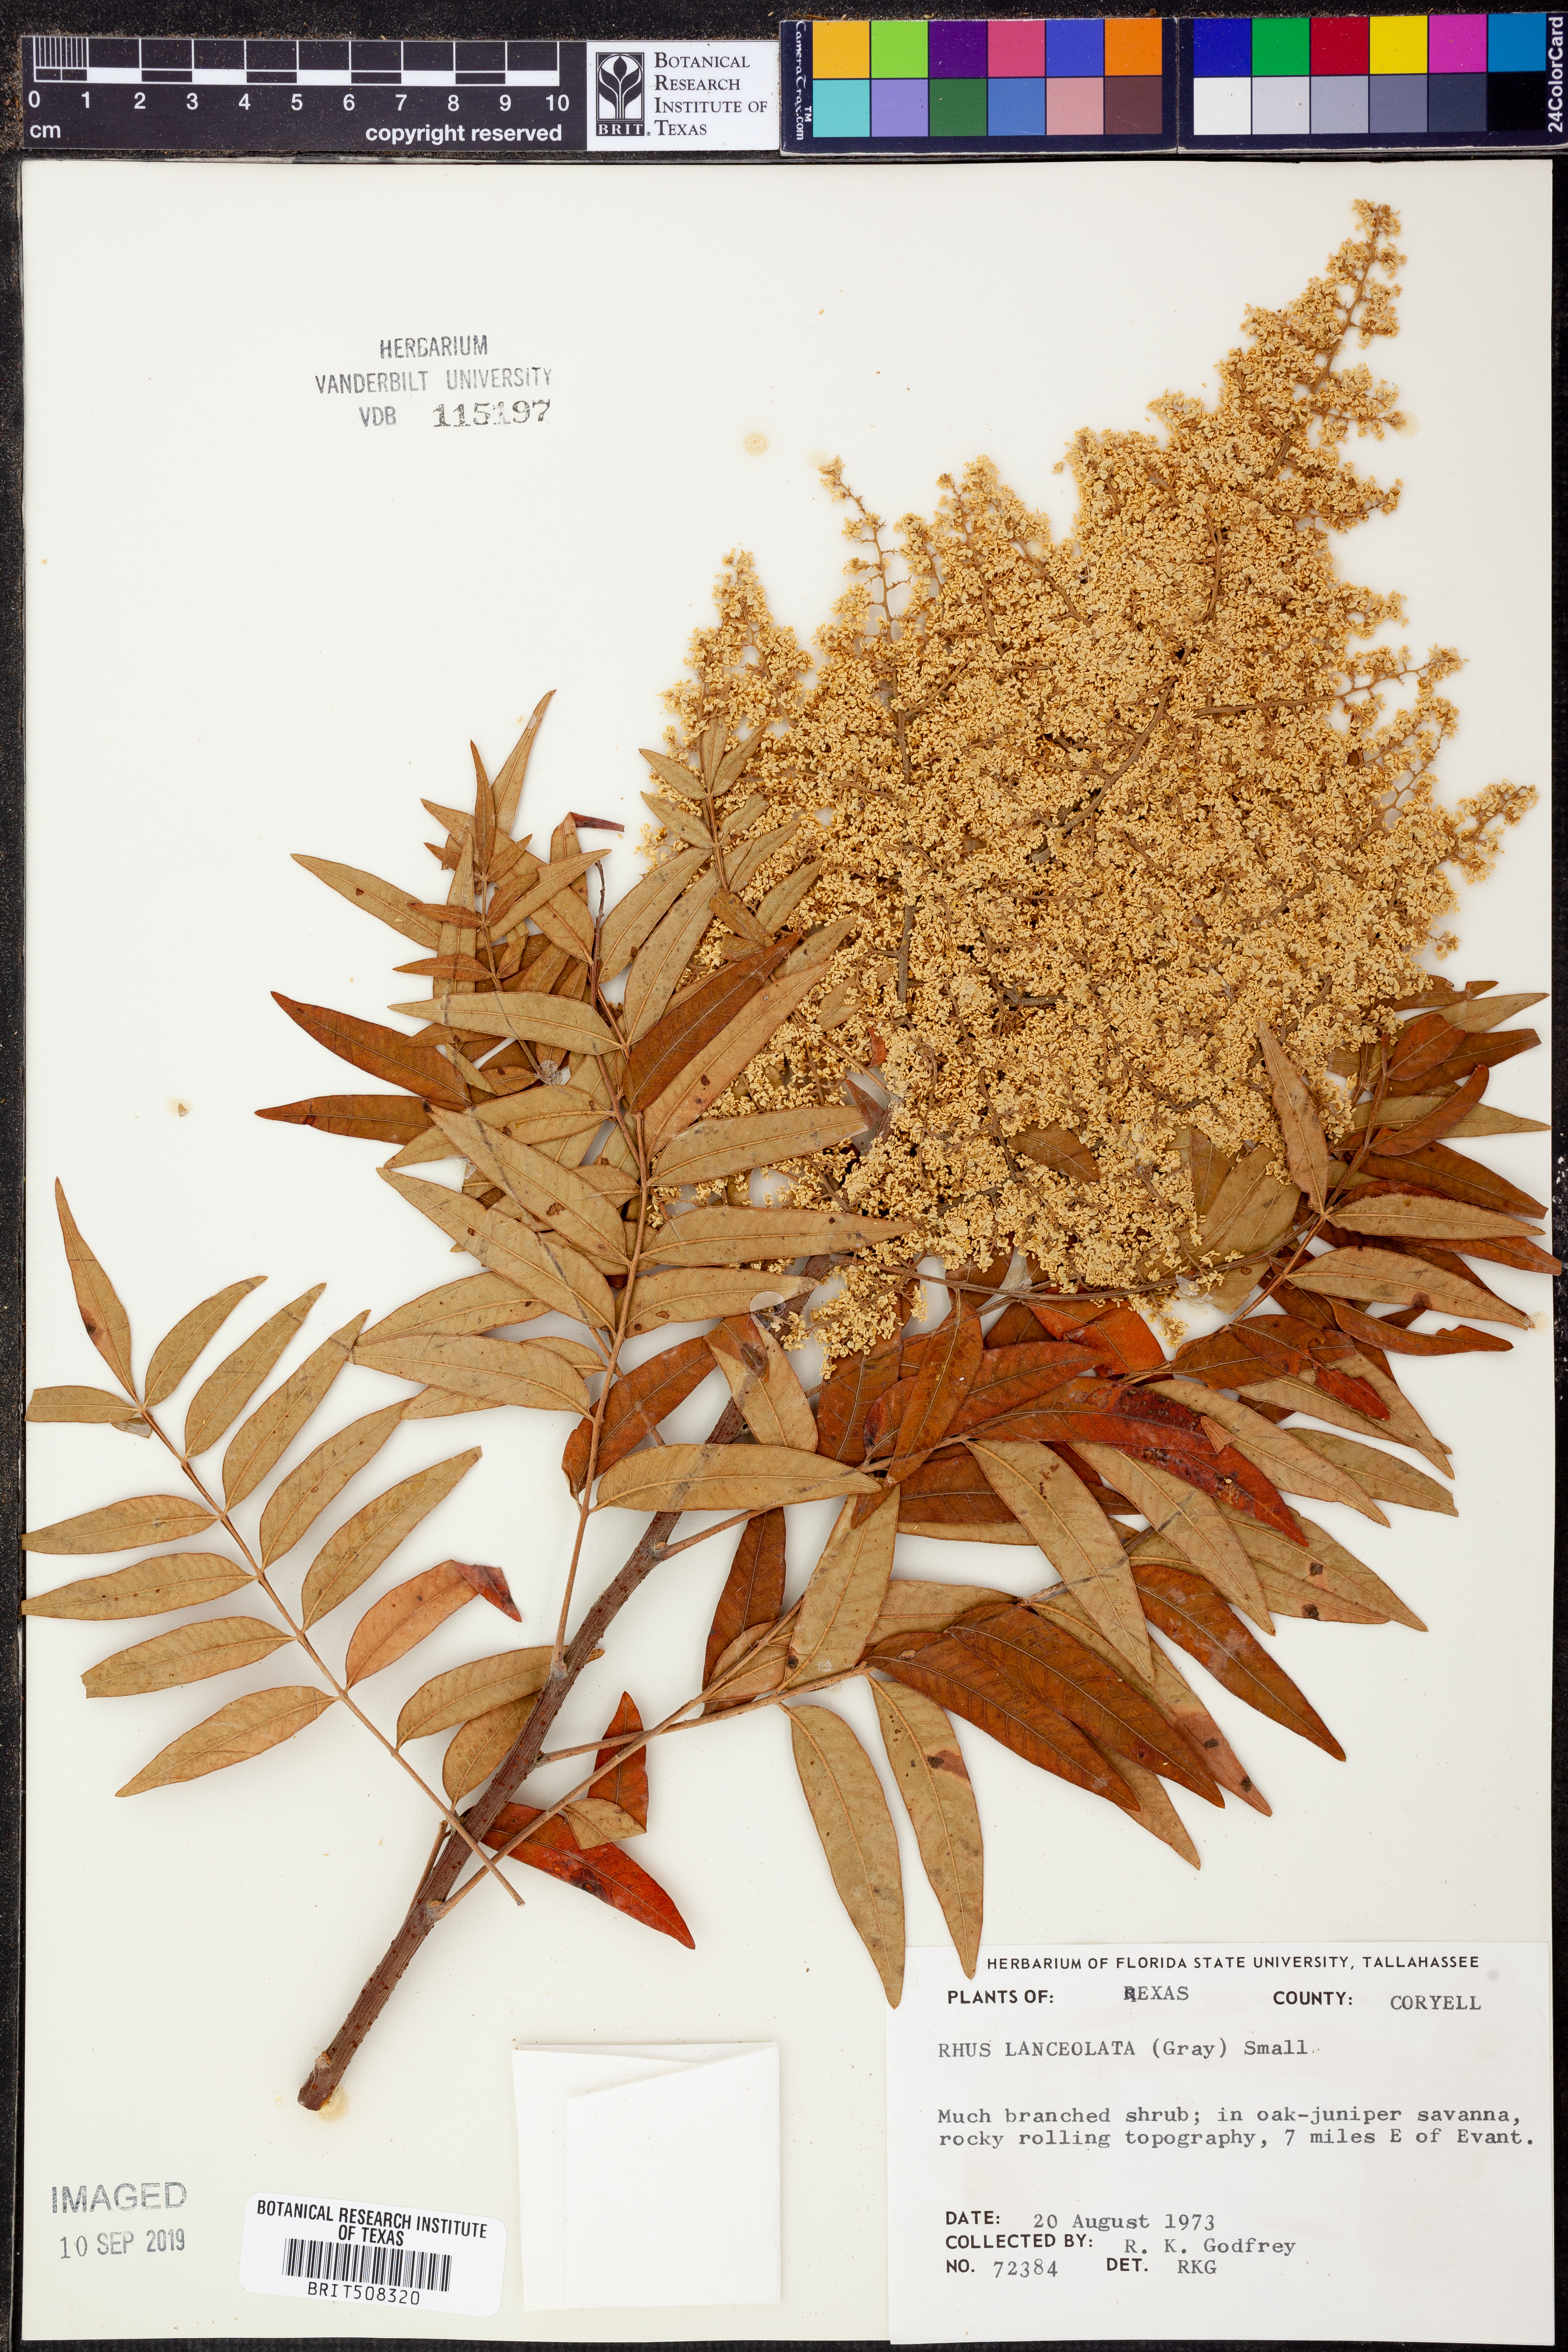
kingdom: Plantae
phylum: Tracheophyta
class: Magnoliopsida
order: Sapindales
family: Anacardiaceae
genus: Rhus
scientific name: Rhus lanceolata
